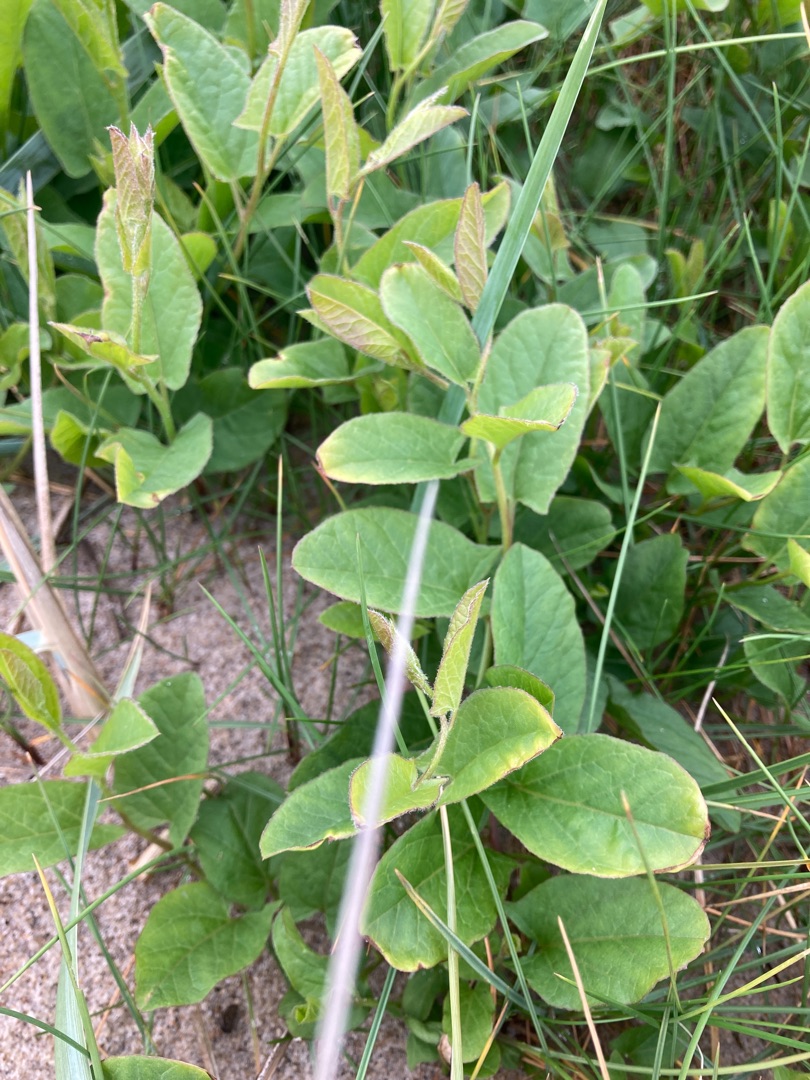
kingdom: Plantae
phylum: Tracheophyta
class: Magnoliopsida
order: Solanales
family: Convolvulaceae
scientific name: Convolvulaceae
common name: Snerlefamilien
